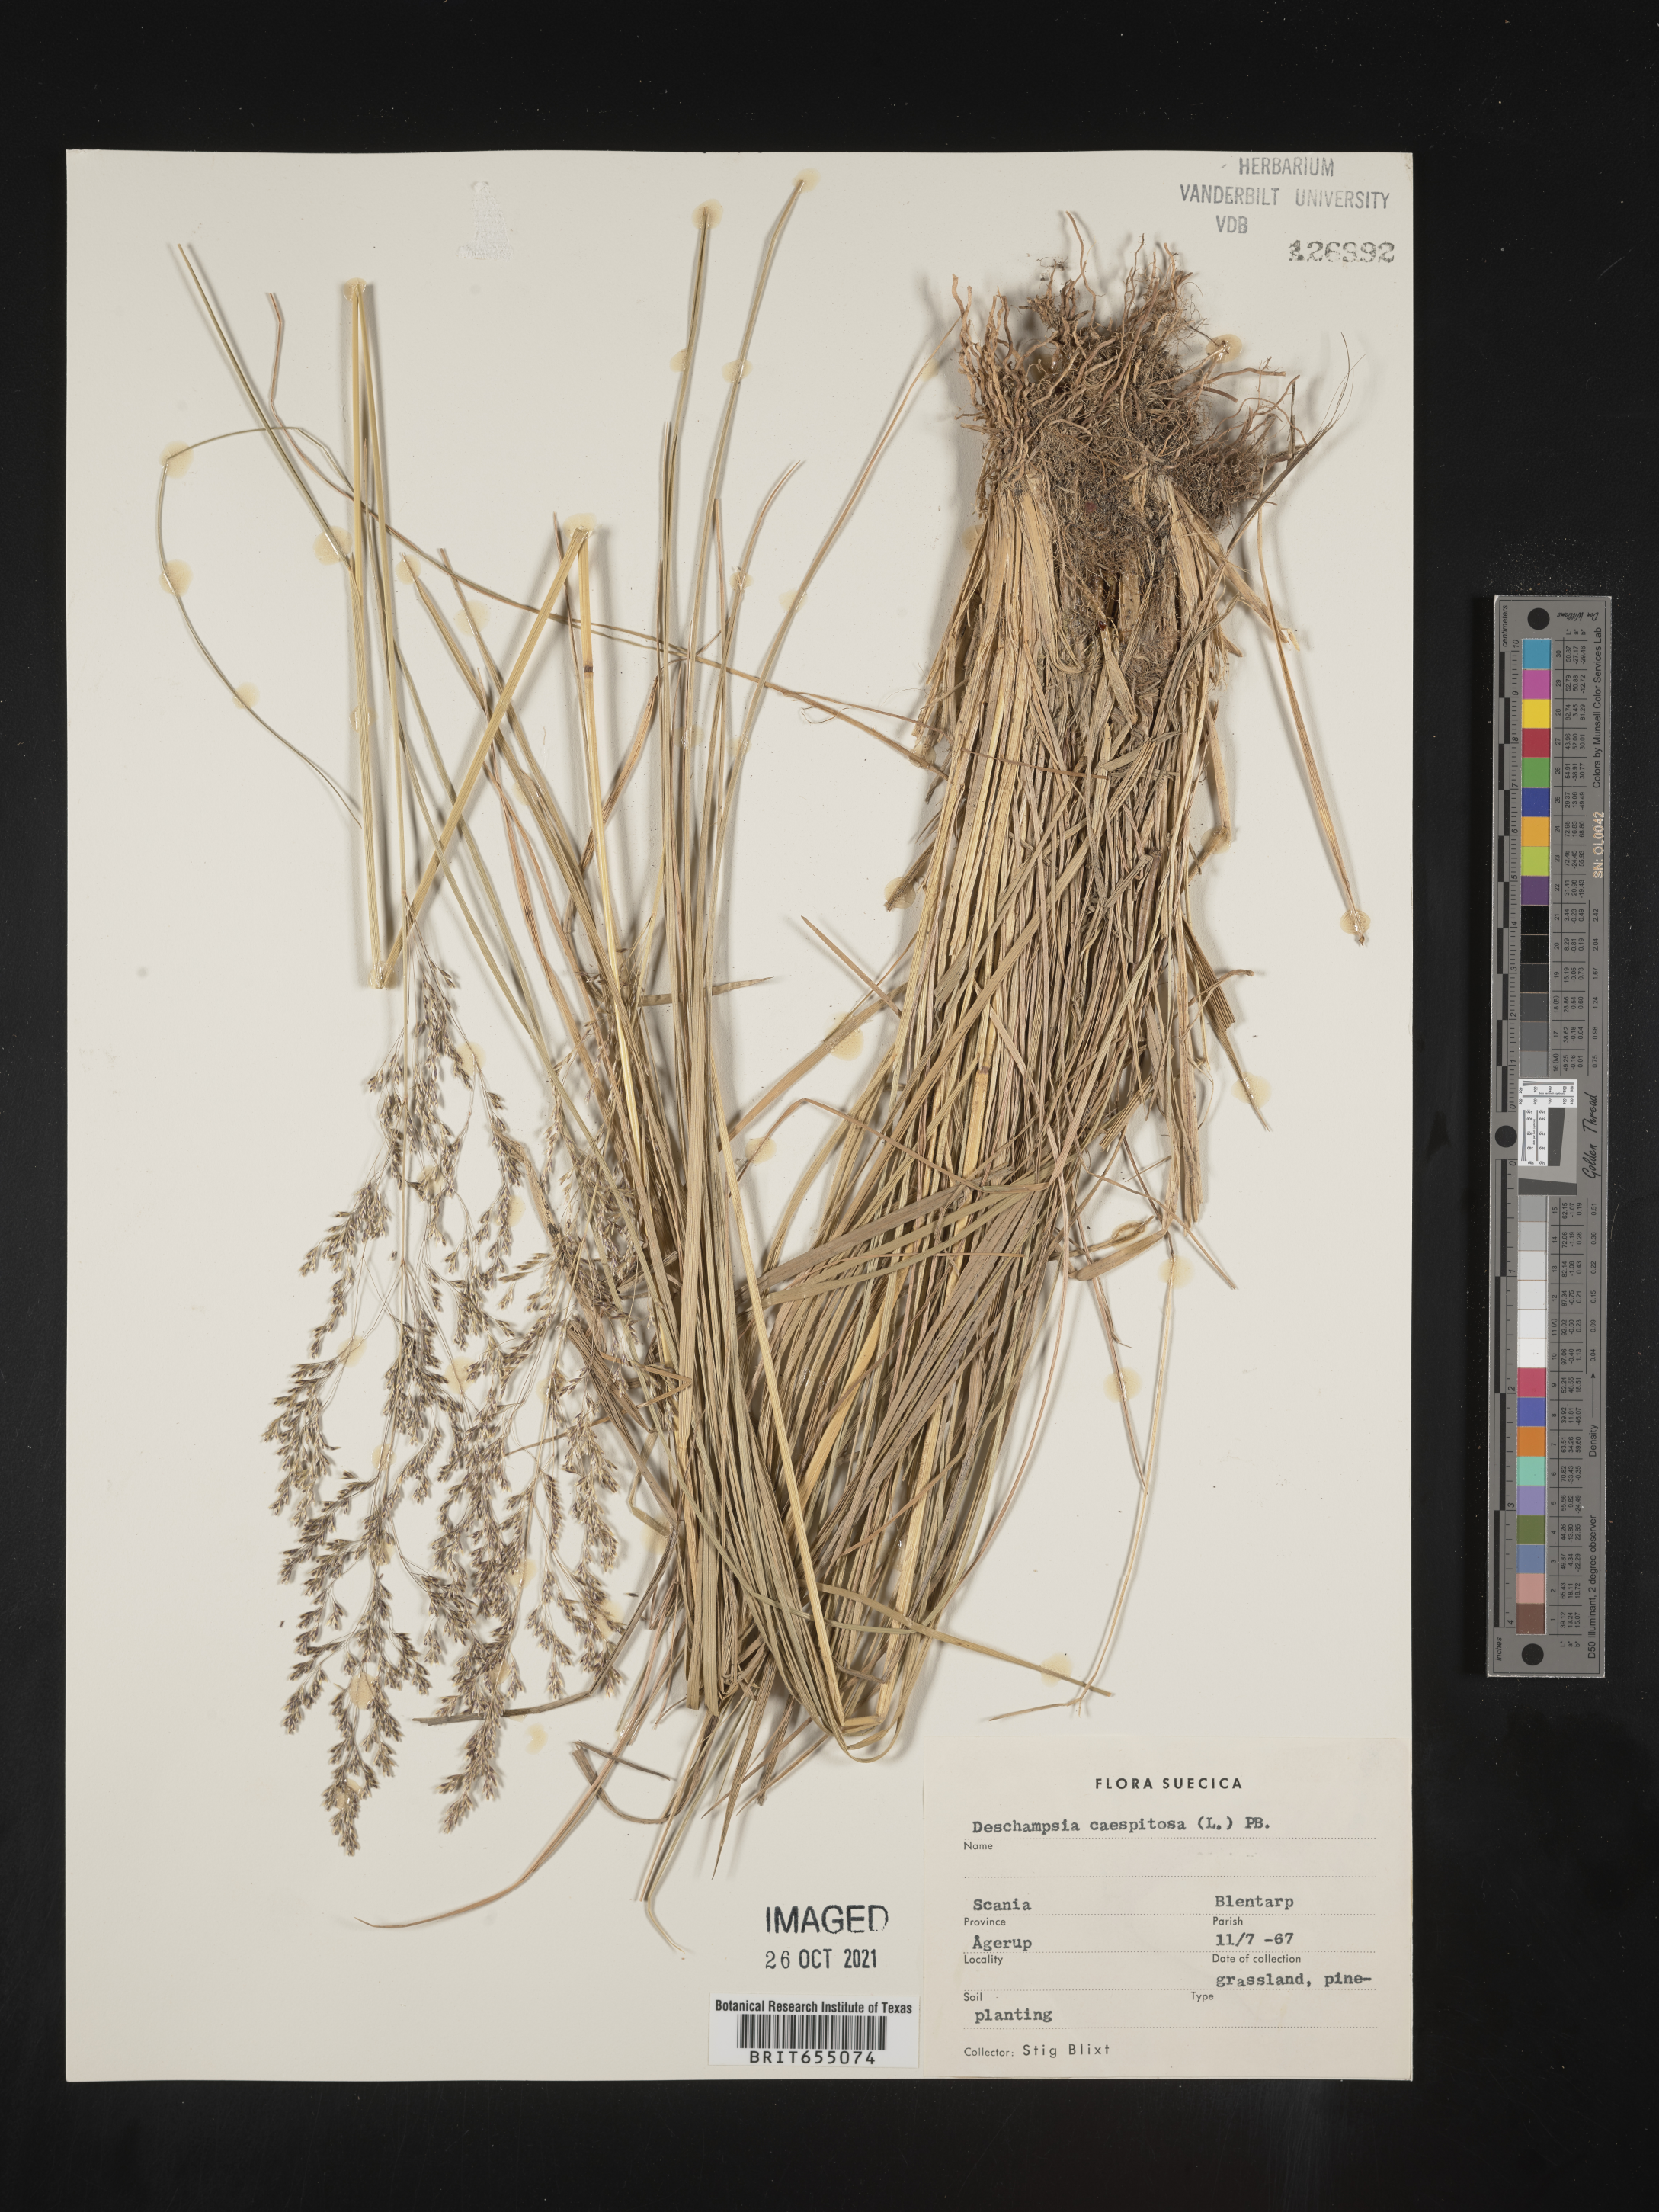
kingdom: Plantae
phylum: Tracheophyta
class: Liliopsida
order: Poales
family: Poaceae
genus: Deschampsia
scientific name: Deschampsia
